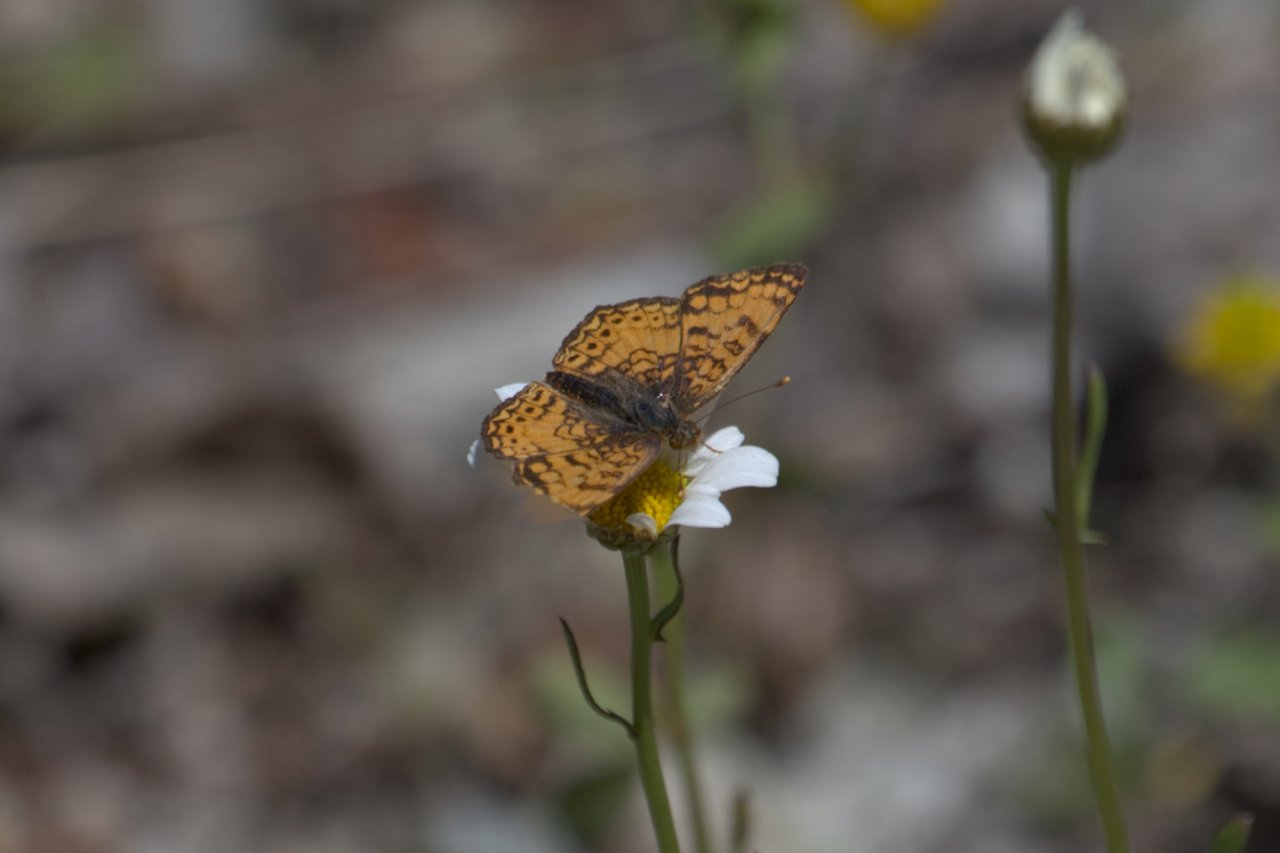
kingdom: Animalia
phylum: Arthropoda
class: Insecta
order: Lepidoptera
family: Nymphalidae
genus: Eresia
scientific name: Eresia aveyrona
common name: Mylitta Crescent
